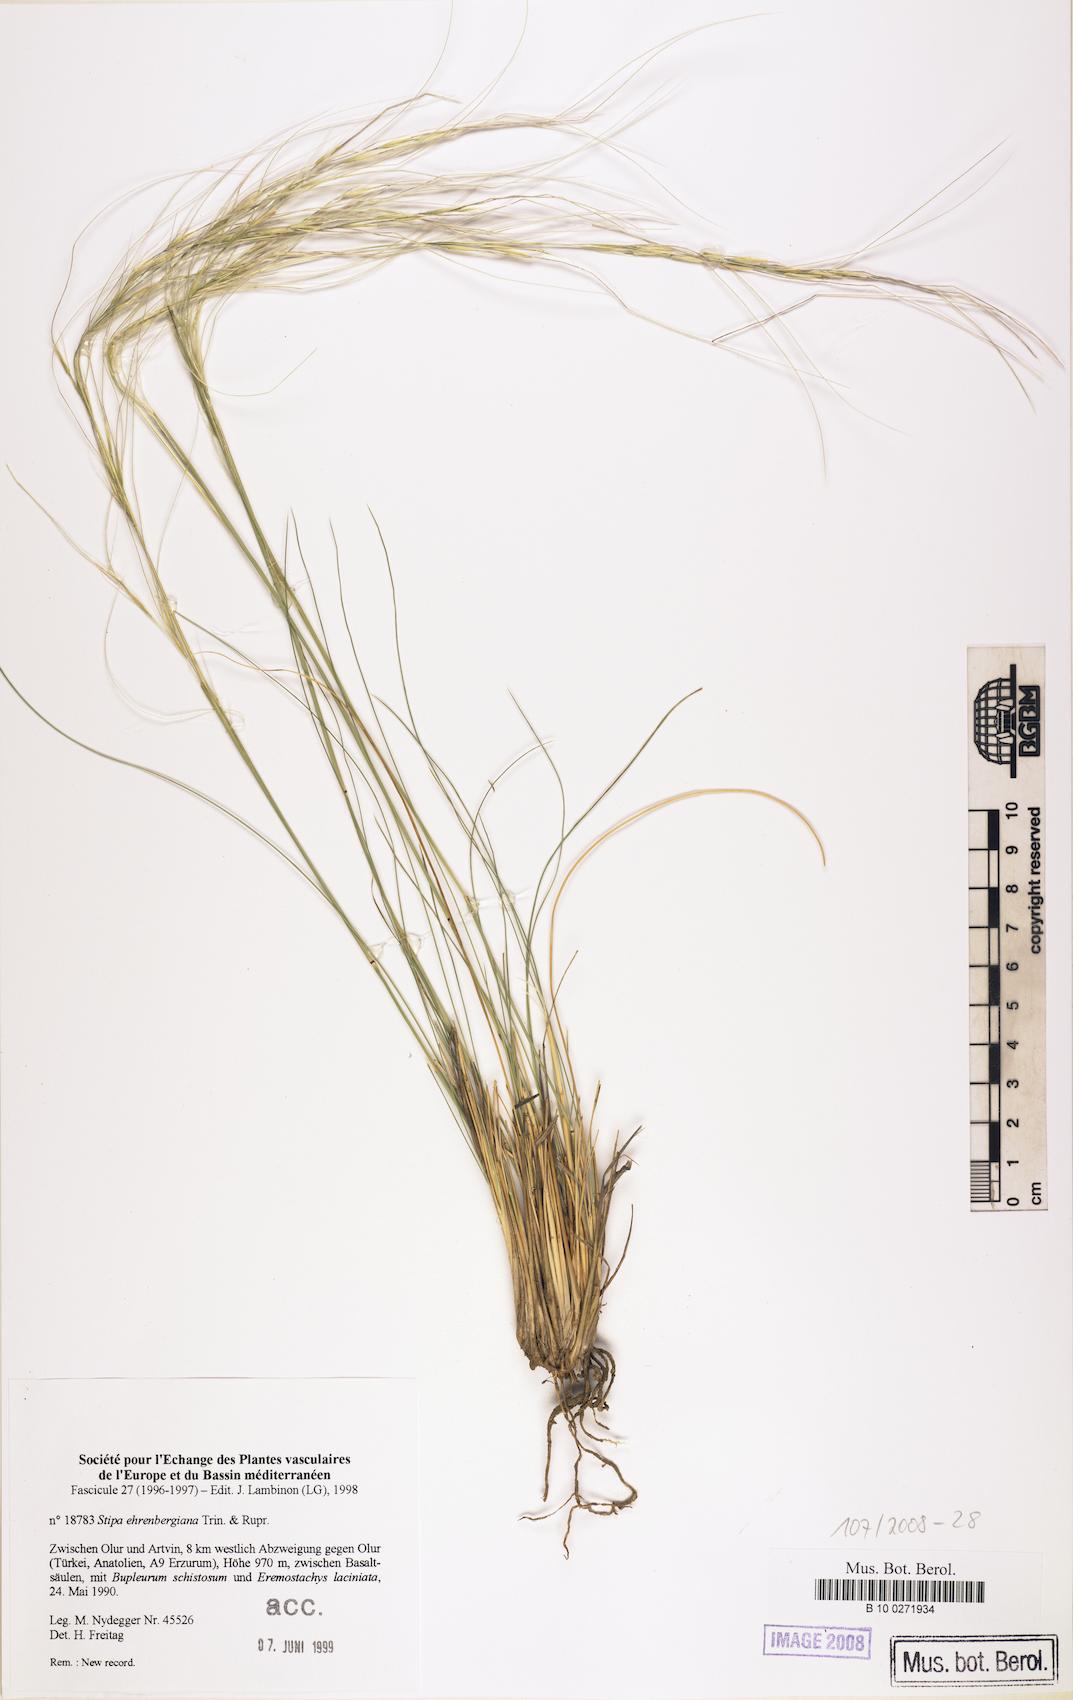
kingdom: Plantae
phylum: Tracheophyta
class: Liliopsida
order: Poales
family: Poaceae
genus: Stipa
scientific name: Stipa ehrenbergiana
